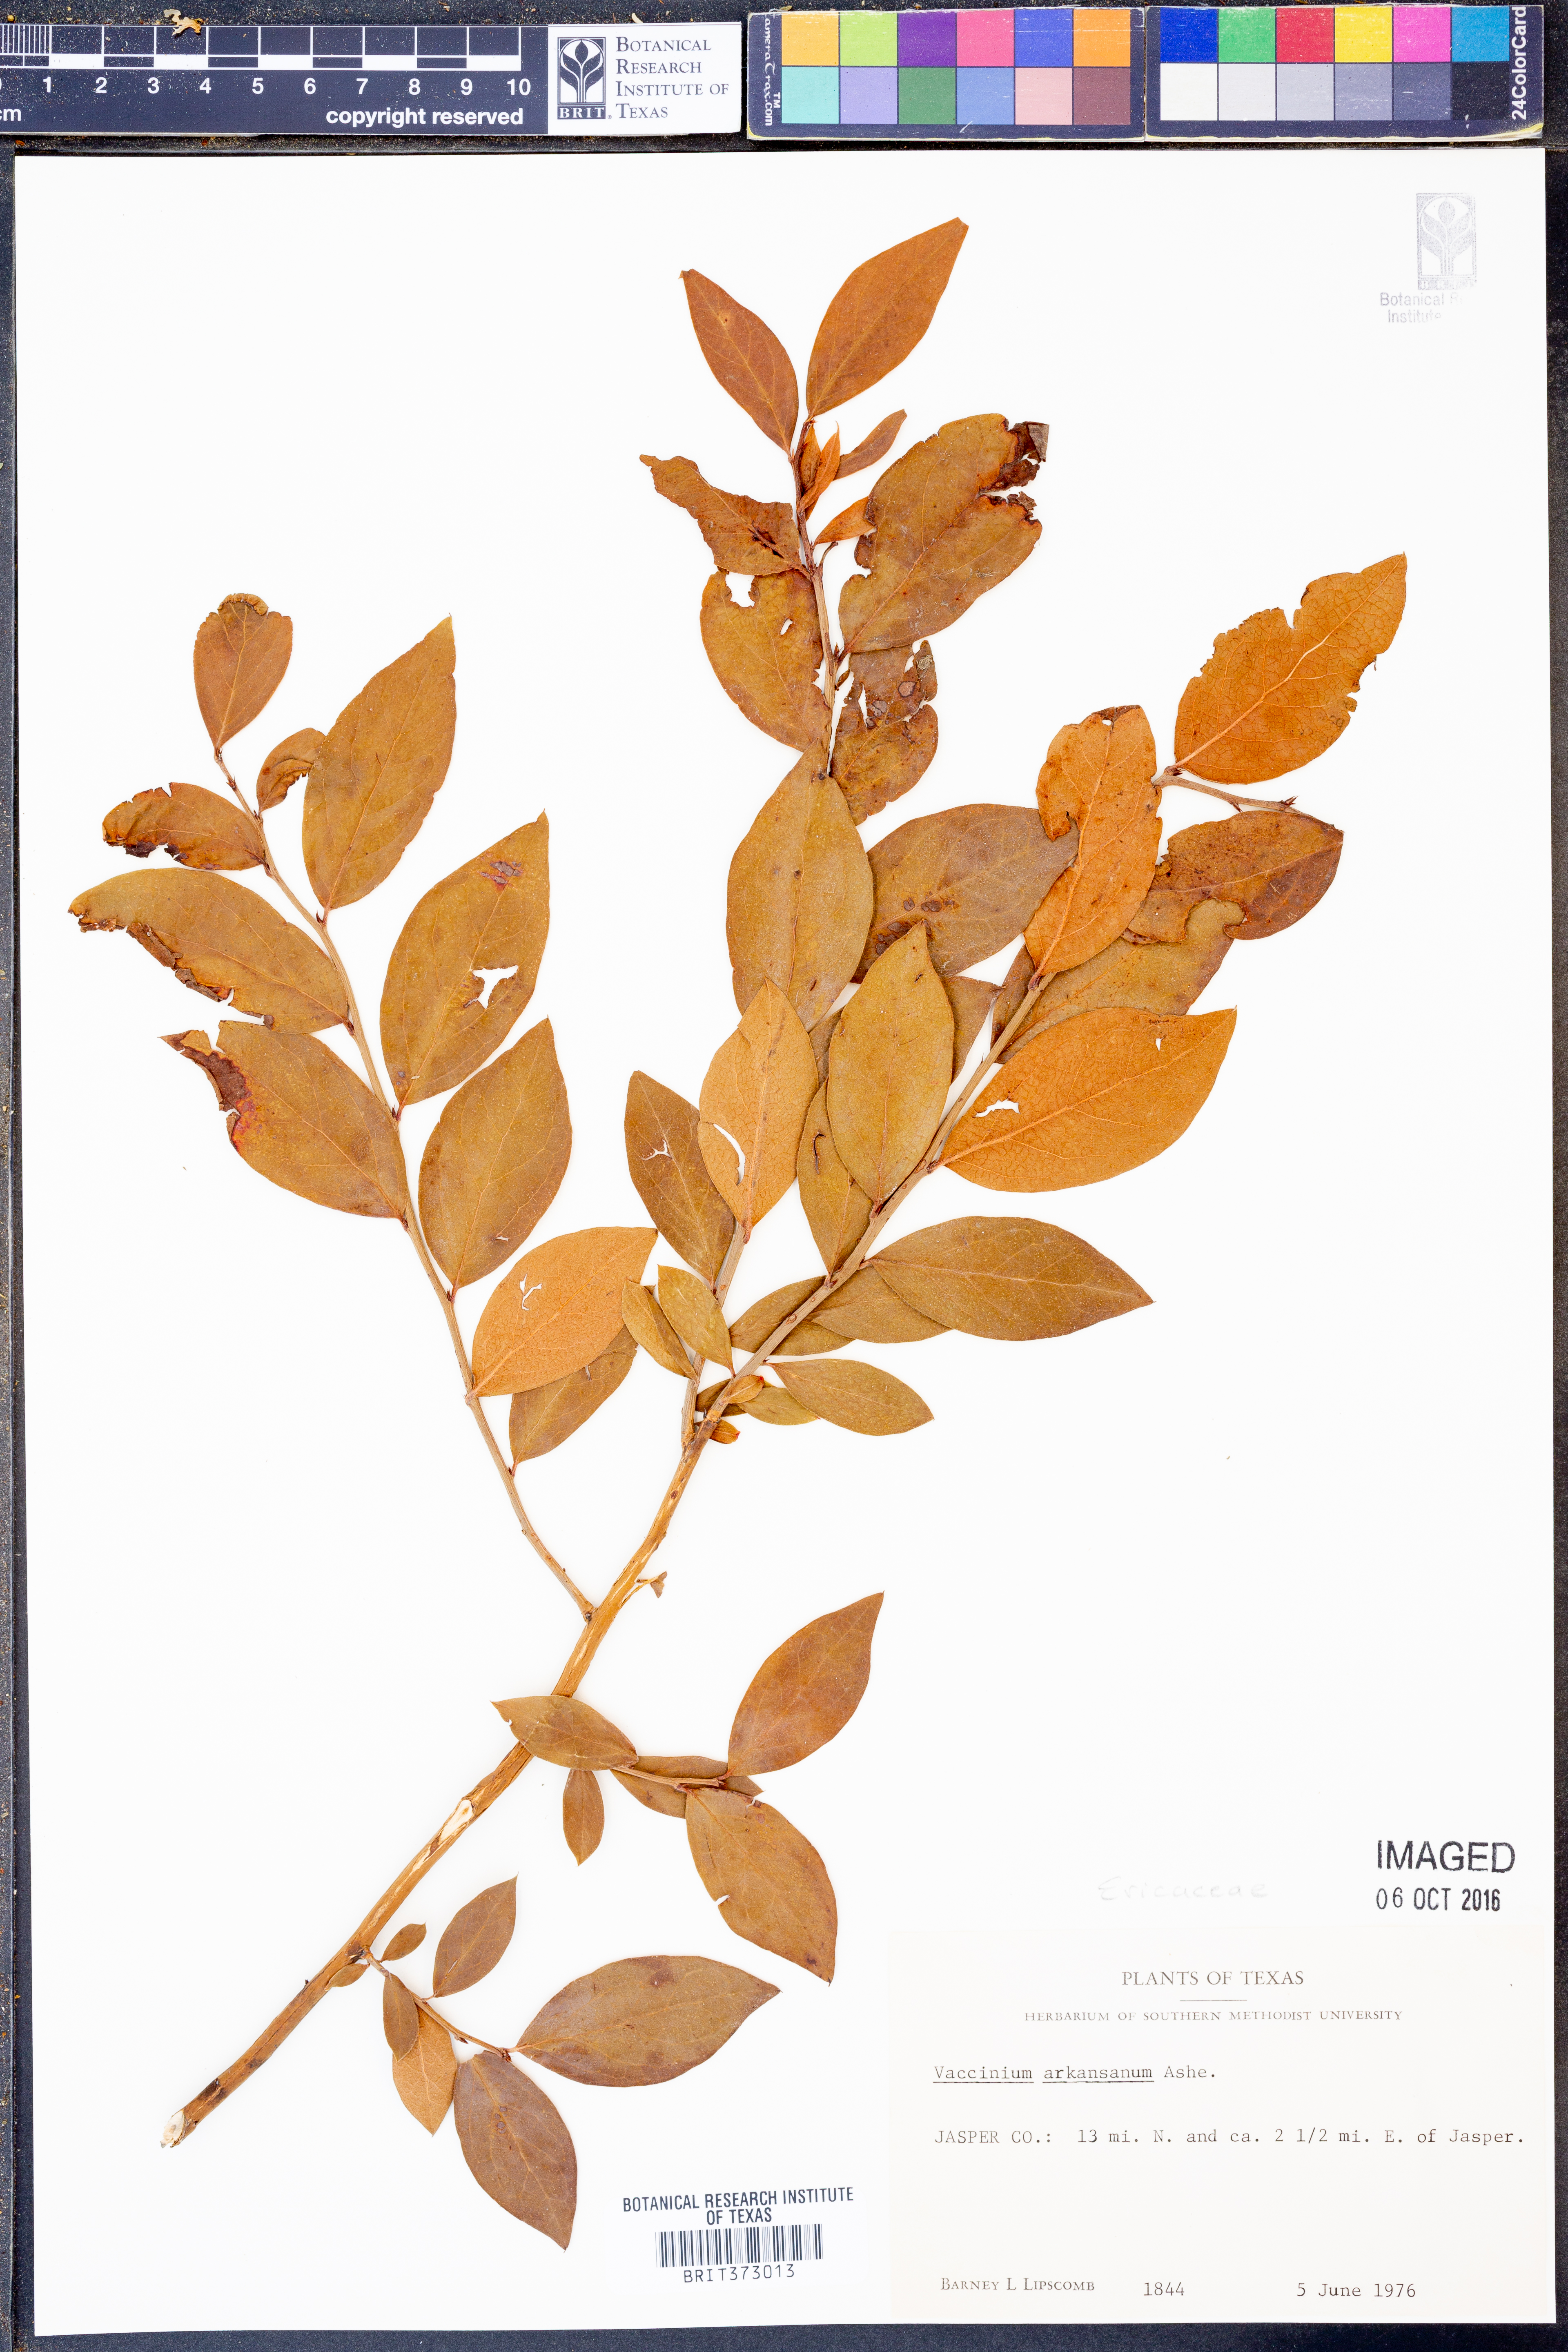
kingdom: Plantae
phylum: Tracheophyta
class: Magnoliopsida
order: Ericales
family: Ericaceae
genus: Vaccinium
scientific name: Vaccinium corymbosum
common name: Blueberry
